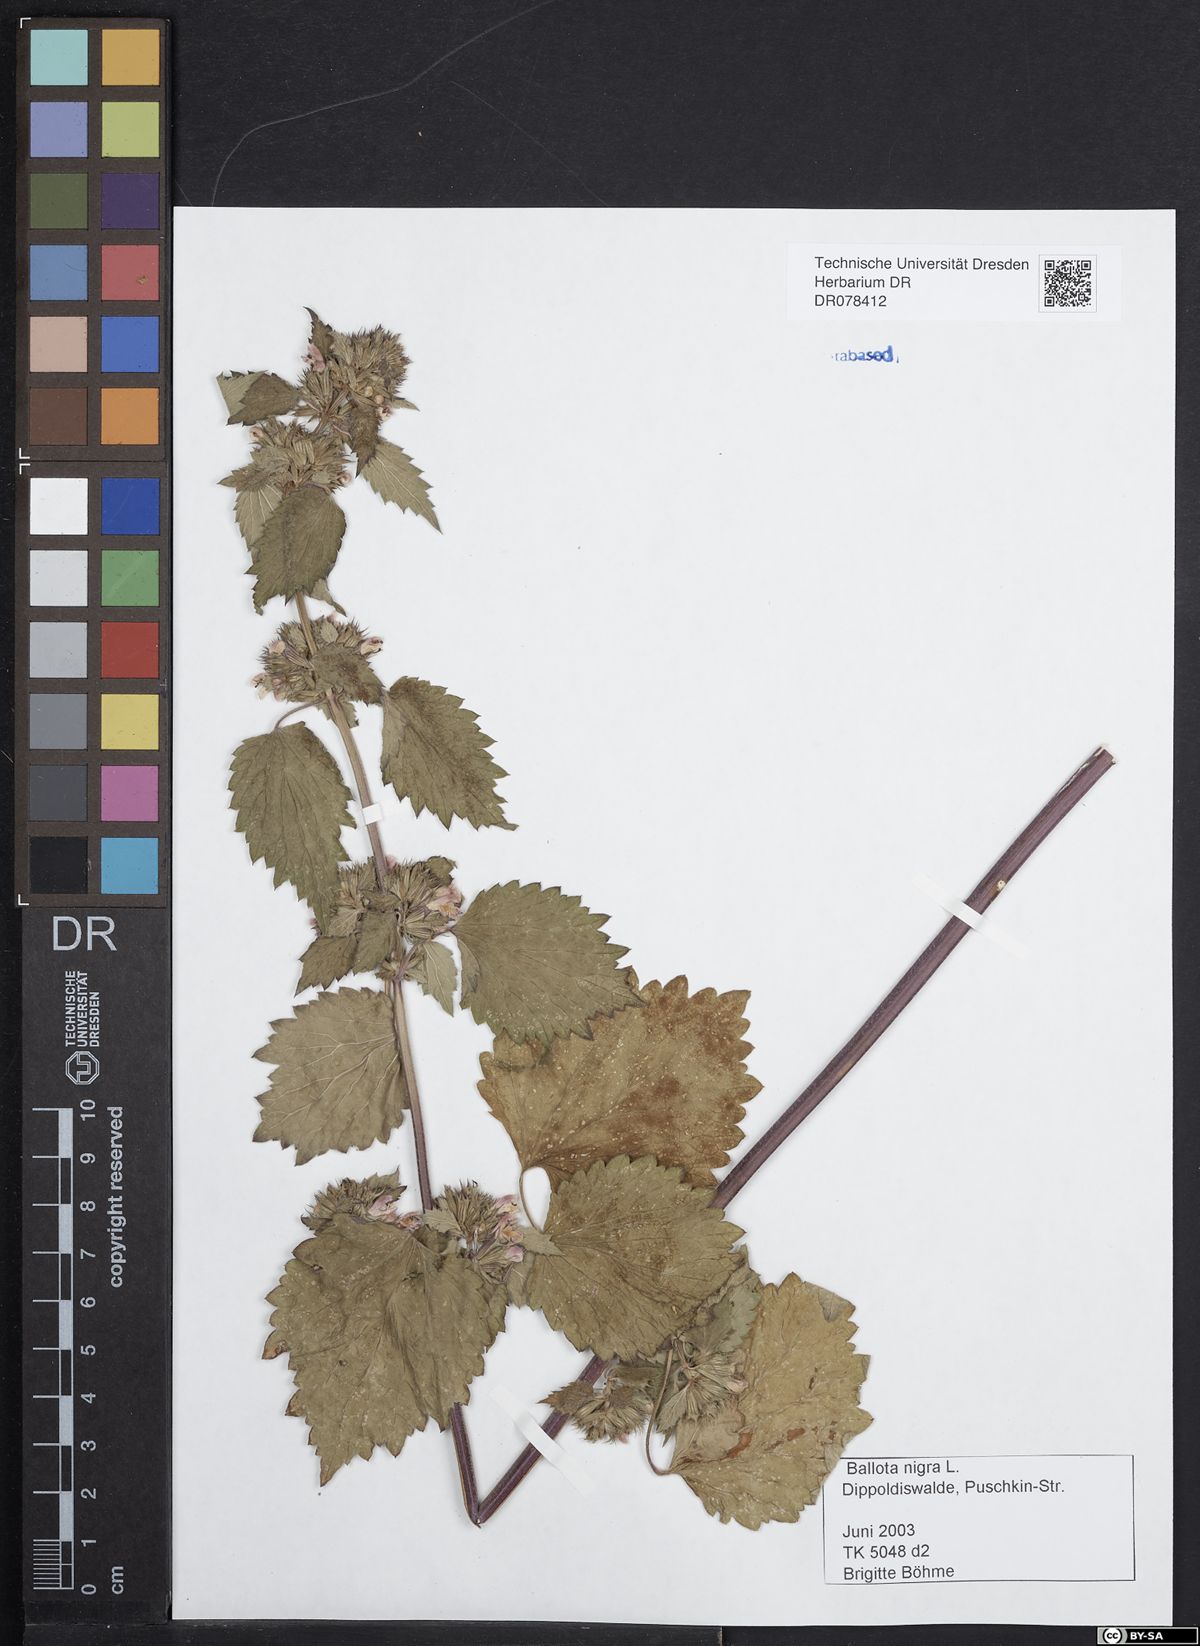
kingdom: Plantae
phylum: Tracheophyta
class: Magnoliopsida
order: Lamiales
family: Lamiaceae
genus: Ballota
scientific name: Ballota nigra
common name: Black horehound
